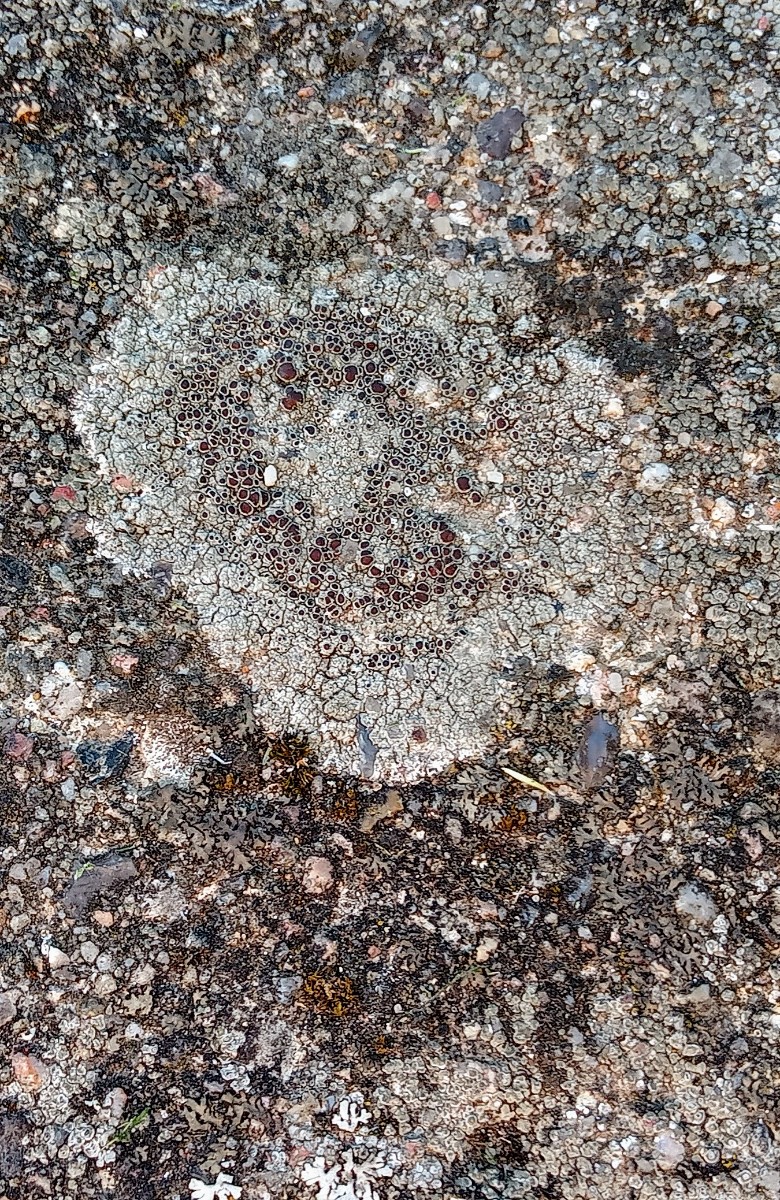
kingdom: Fungi
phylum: Ascomycota
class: Lecanoromycetes
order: Lecanorales
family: Lecanoraceae
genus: Lecanora
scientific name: Lecanora campestris
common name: mur-kantskivelav
